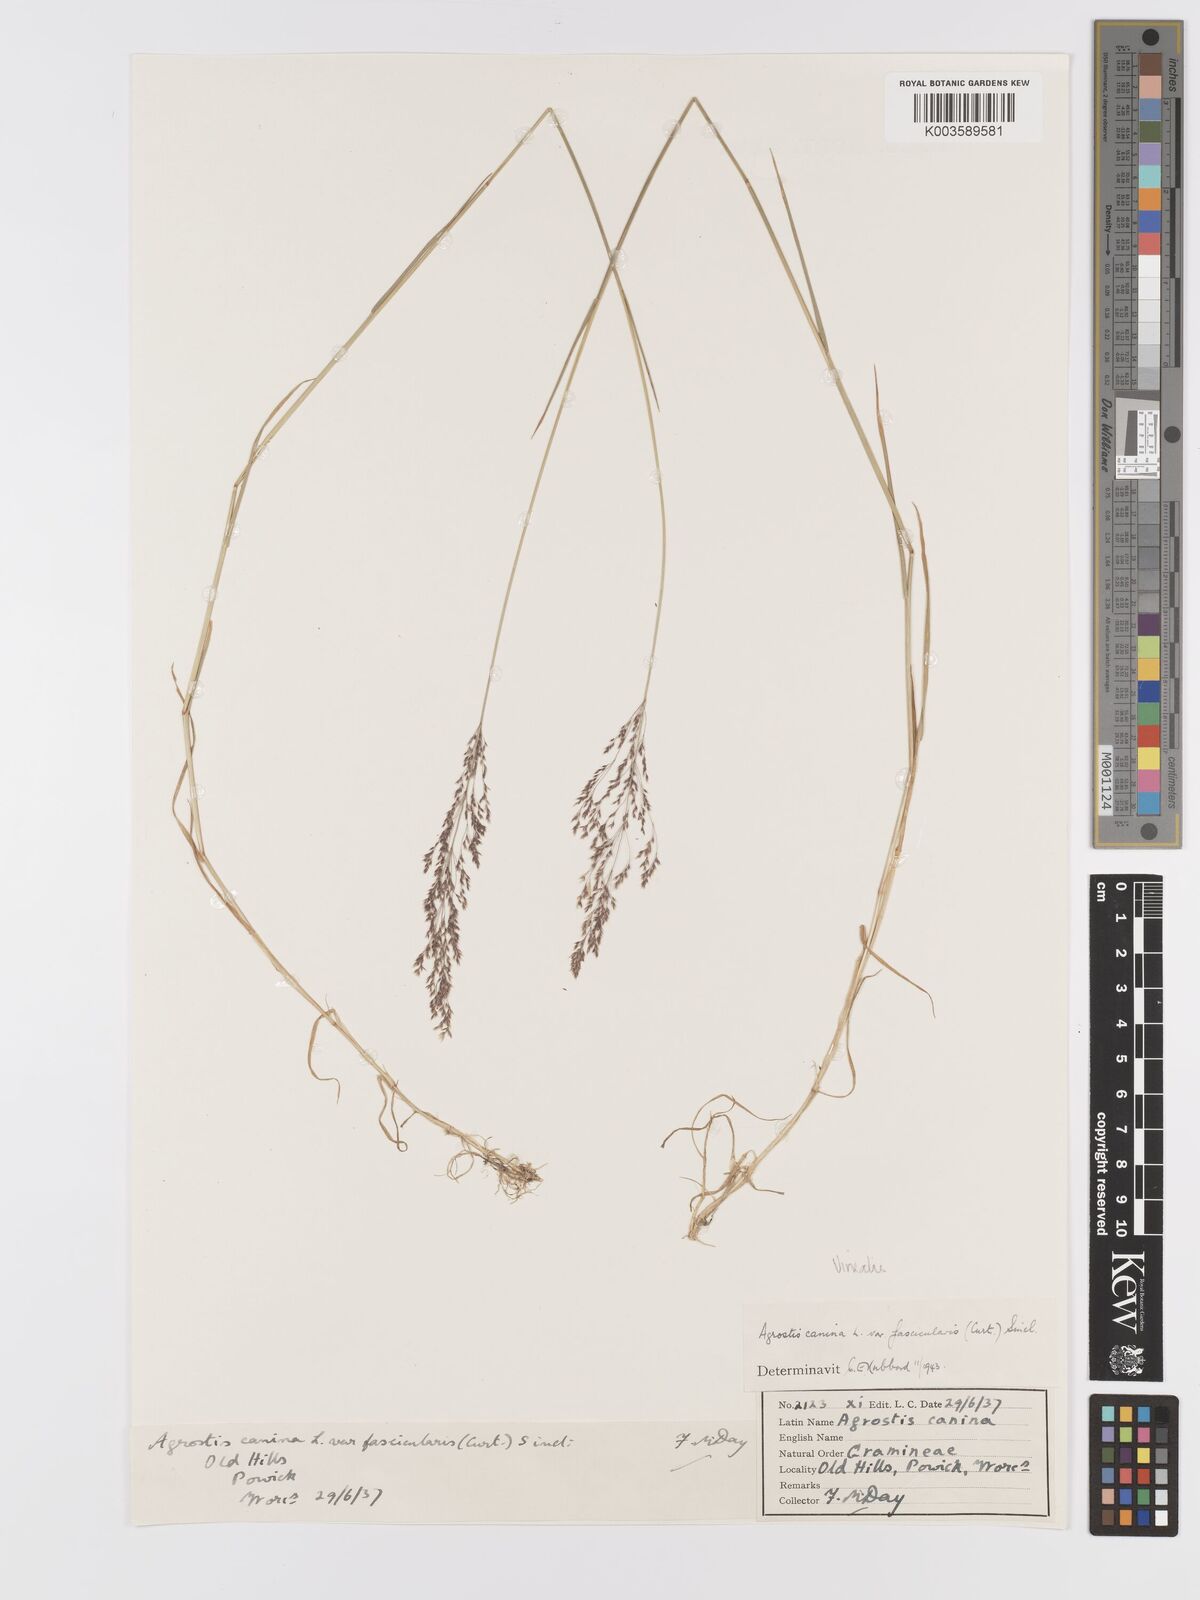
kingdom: Plantae
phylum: Tracheophyta
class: Liliopsida
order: Poales
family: Poaceae
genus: Agrostis
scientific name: Agrostis
